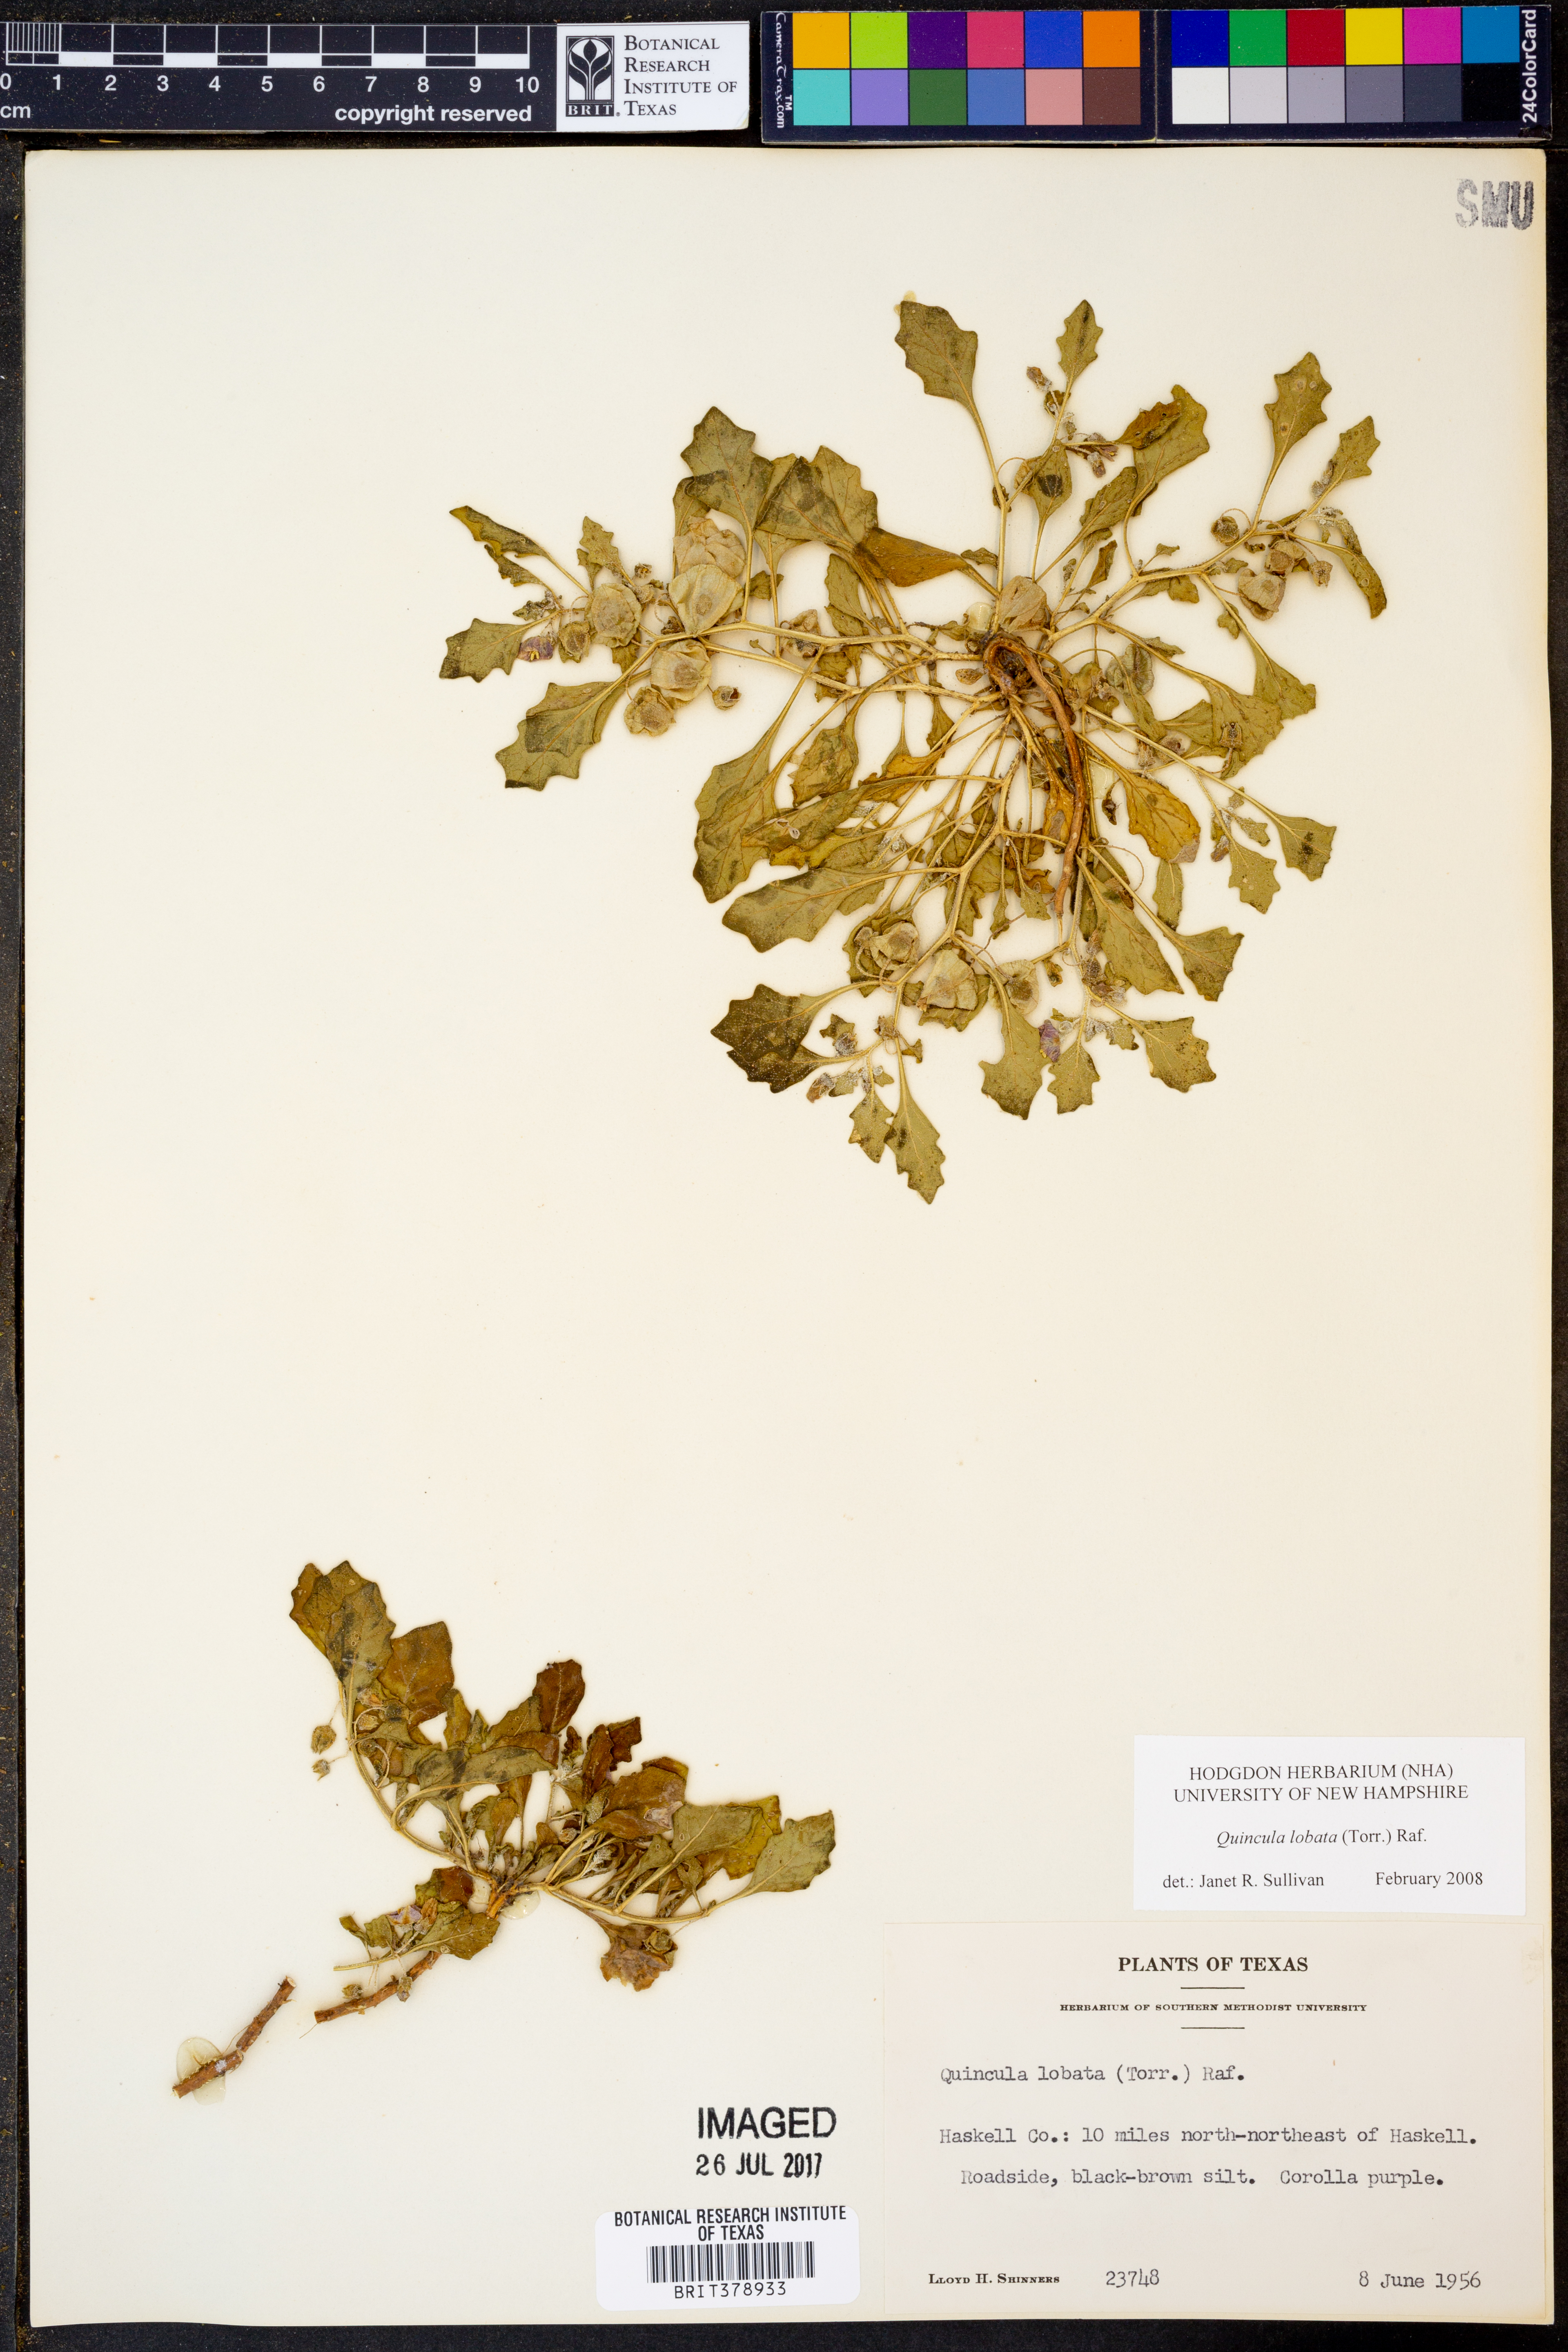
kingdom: Plantae
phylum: Tracheophyta
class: Magnoliopsida
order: Solanales
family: Solanaceae
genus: Quincula
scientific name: Quincula lobata
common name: Purple-ground-cherry
